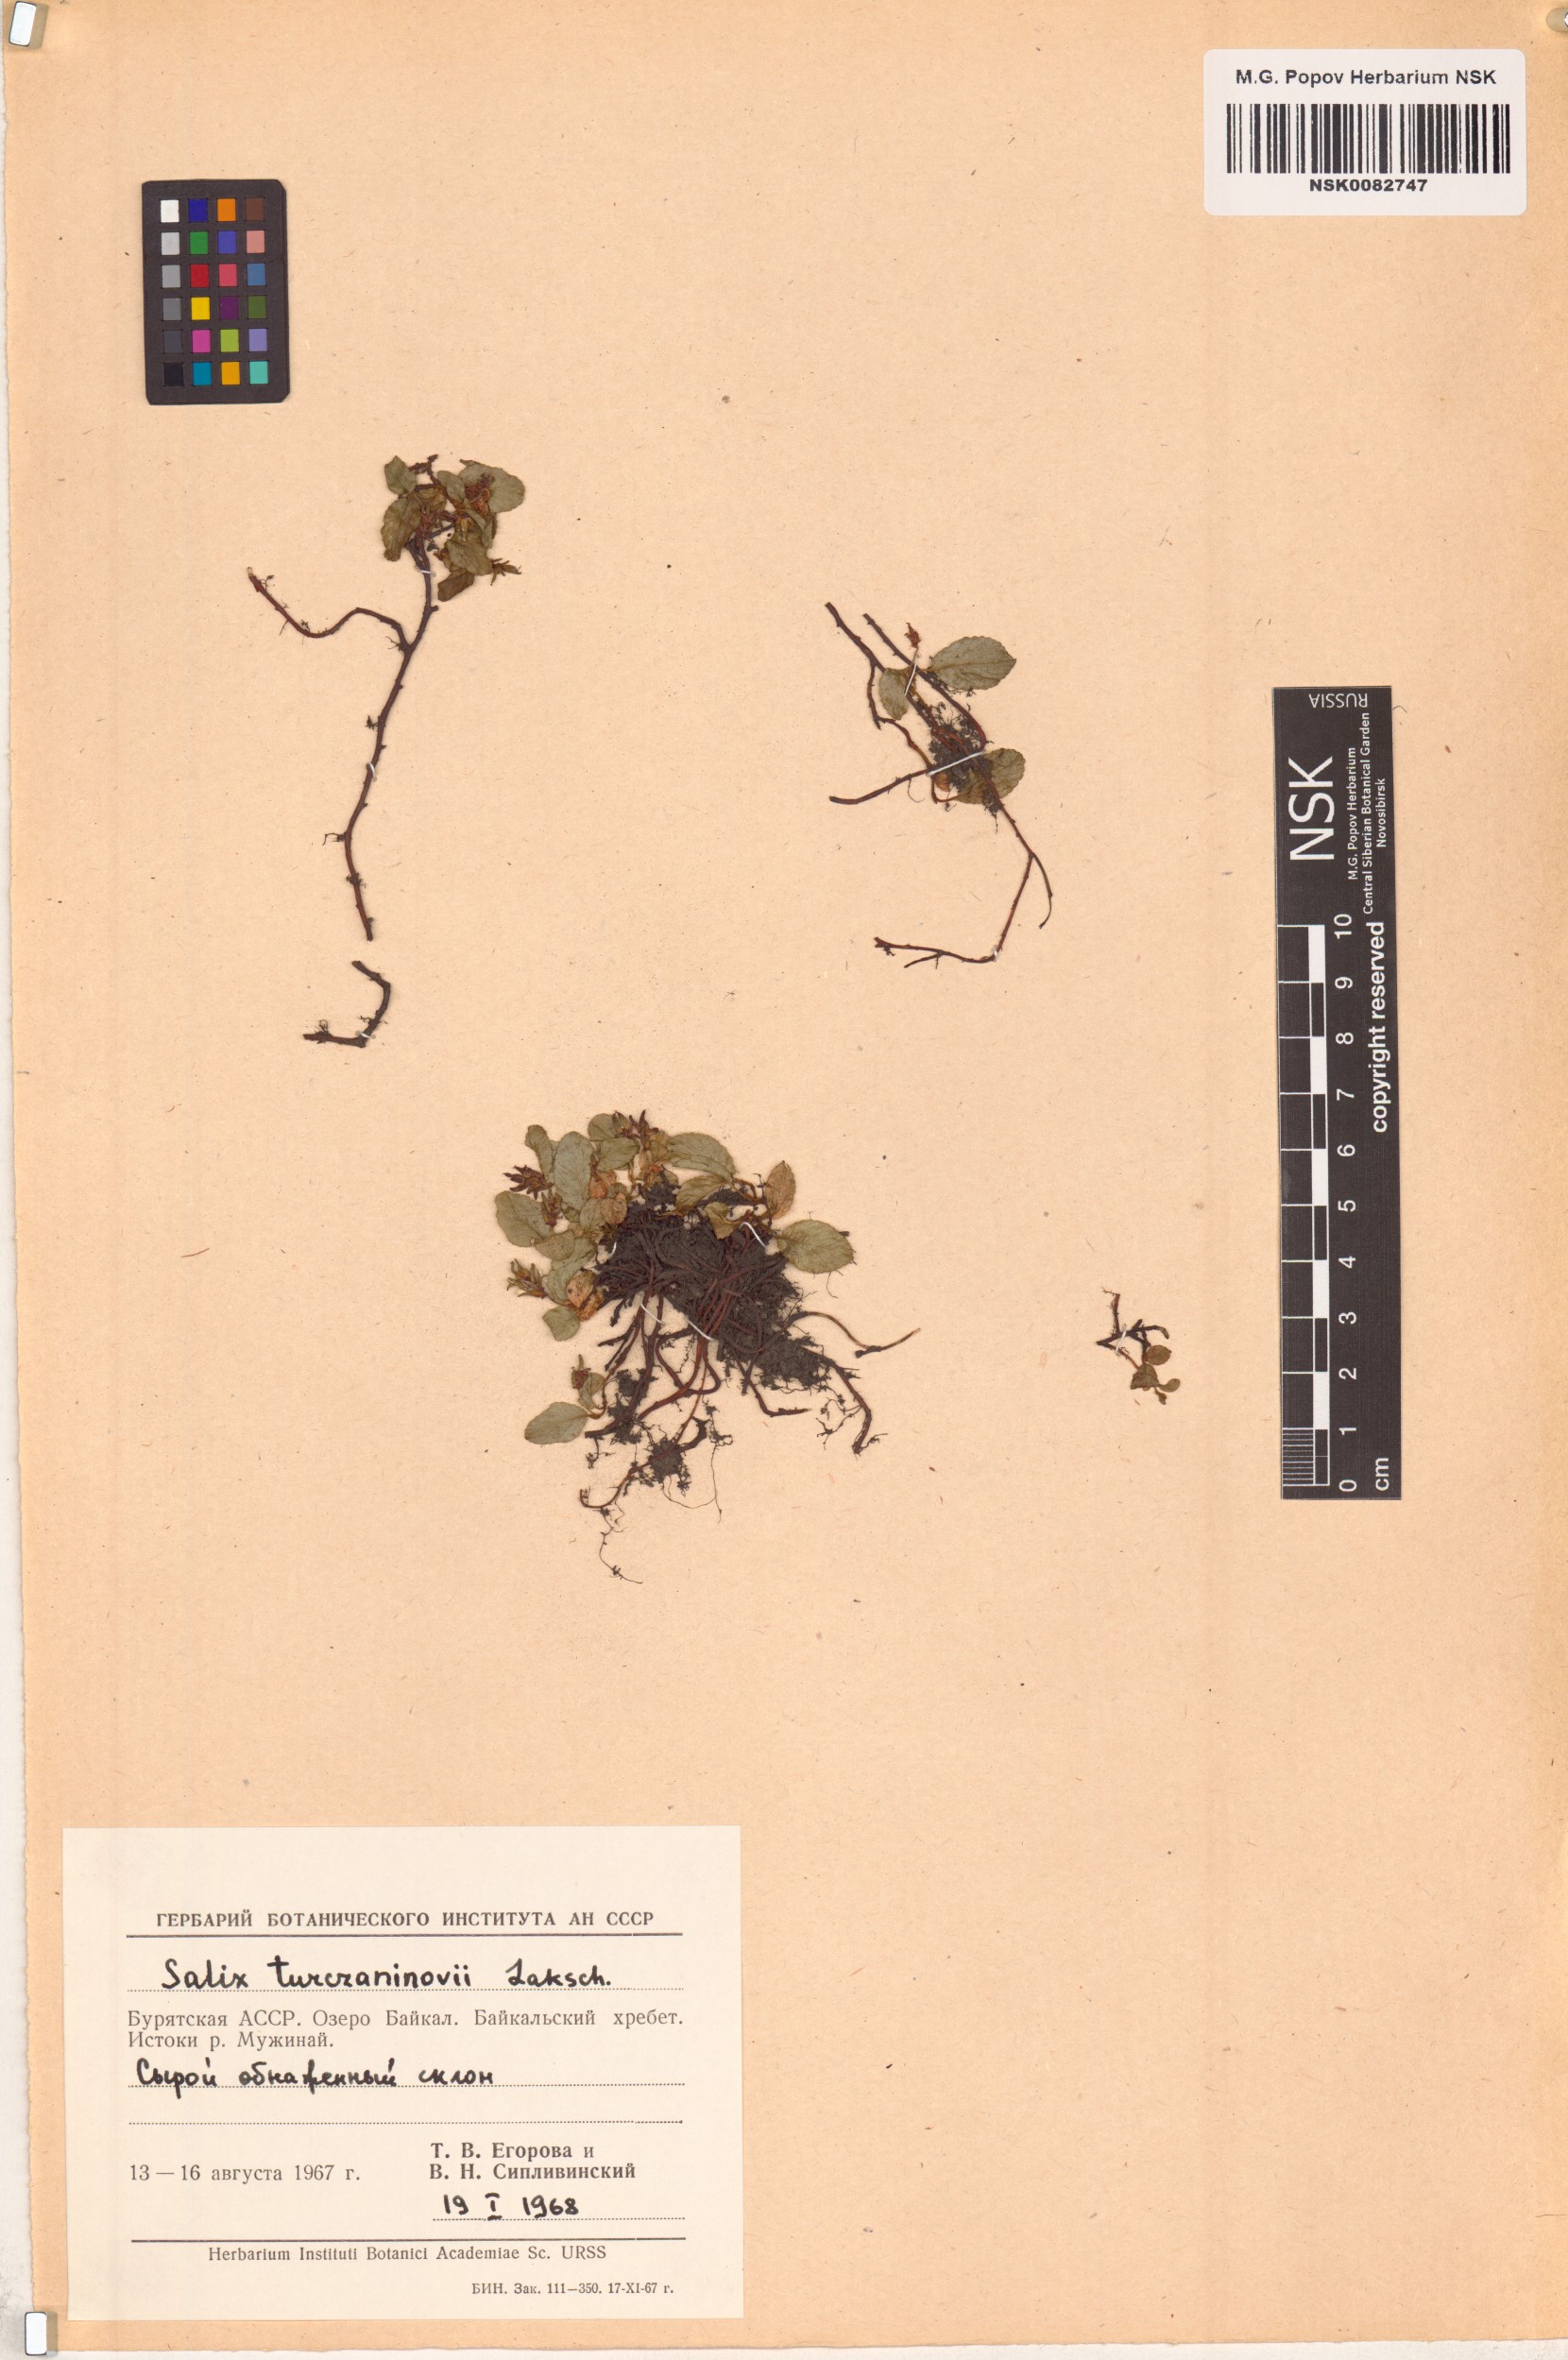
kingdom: Plantae
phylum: Tracheophyta
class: Magnoliopsida
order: Malpighiales
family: Salicaceae
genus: Salix
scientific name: Salix turczaninowii
